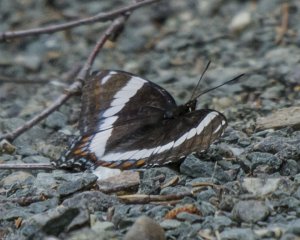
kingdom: Animalia
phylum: Arthropoda
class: Insecta
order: Lepidoptera
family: Nymphalidae
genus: Limenitis
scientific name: Limenitis arthemis
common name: Red-spotted Admiral
